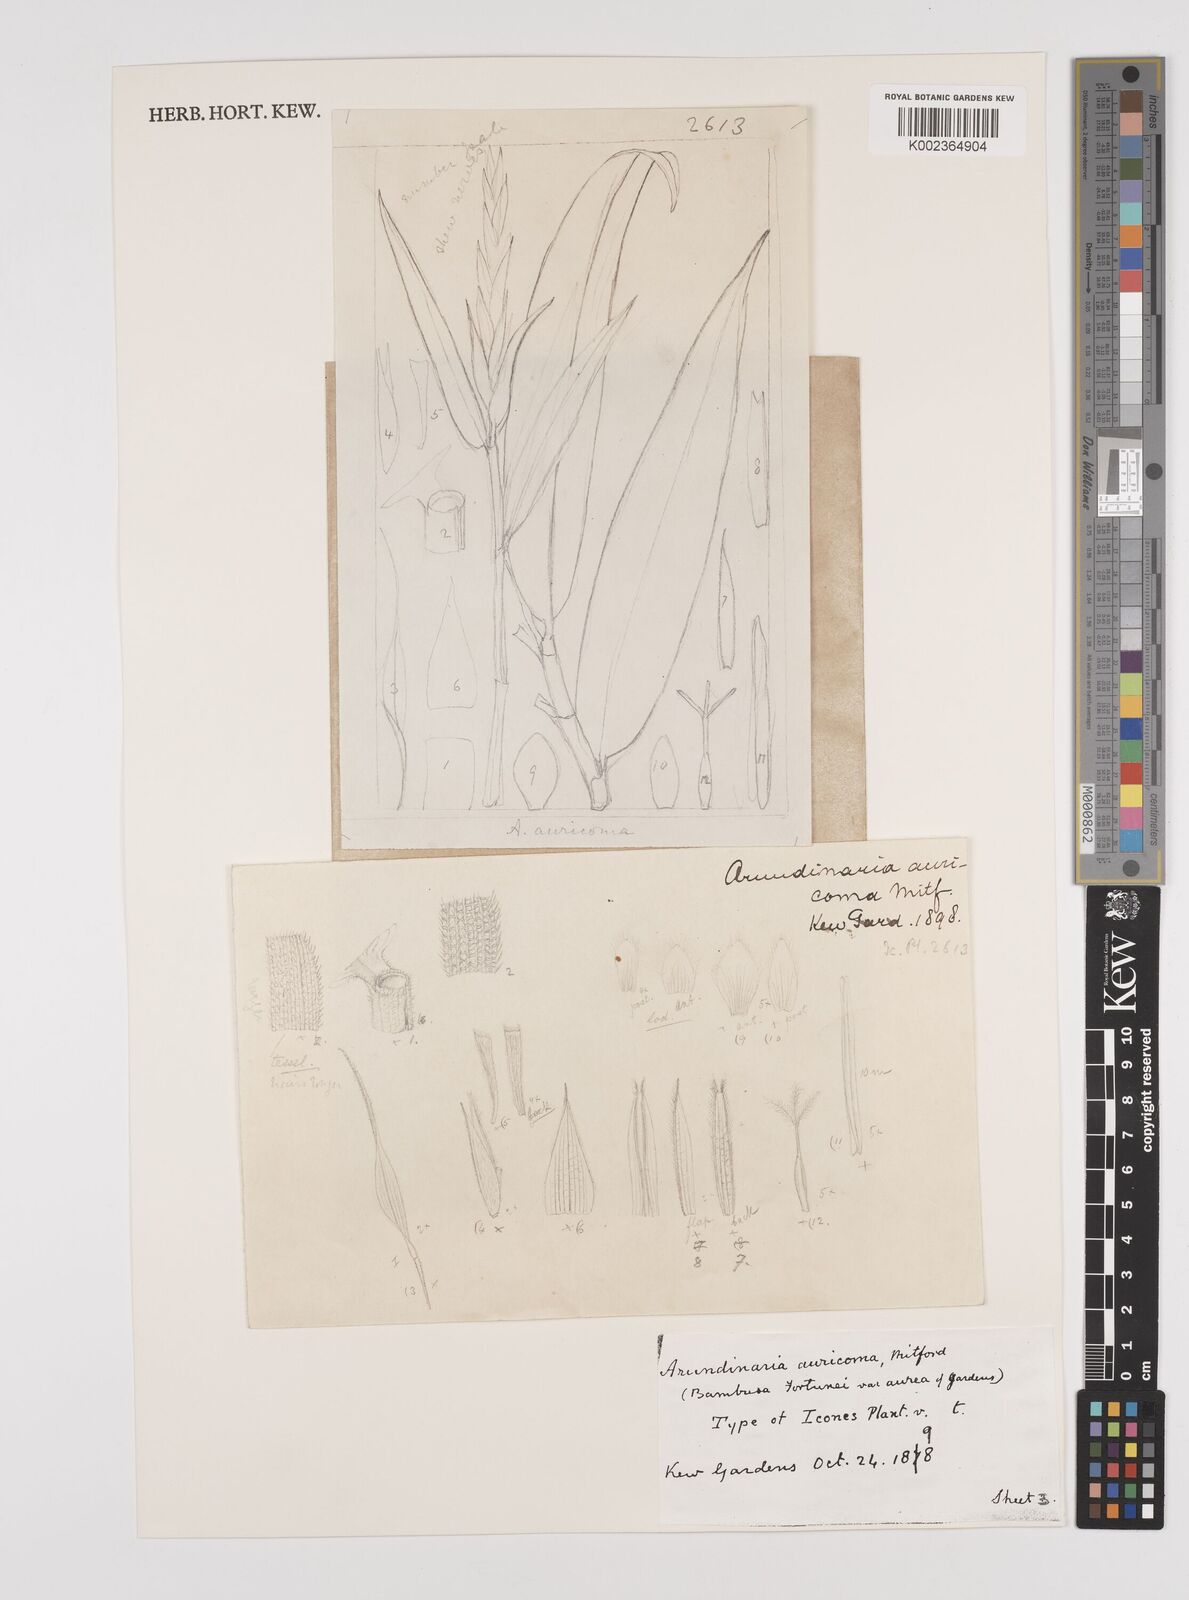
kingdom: Plantae
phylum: Tracheophyta
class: Liliopsida
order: Poales
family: Poaceae
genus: Pleioblastus
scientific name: Pleioblastus viridistriatus
